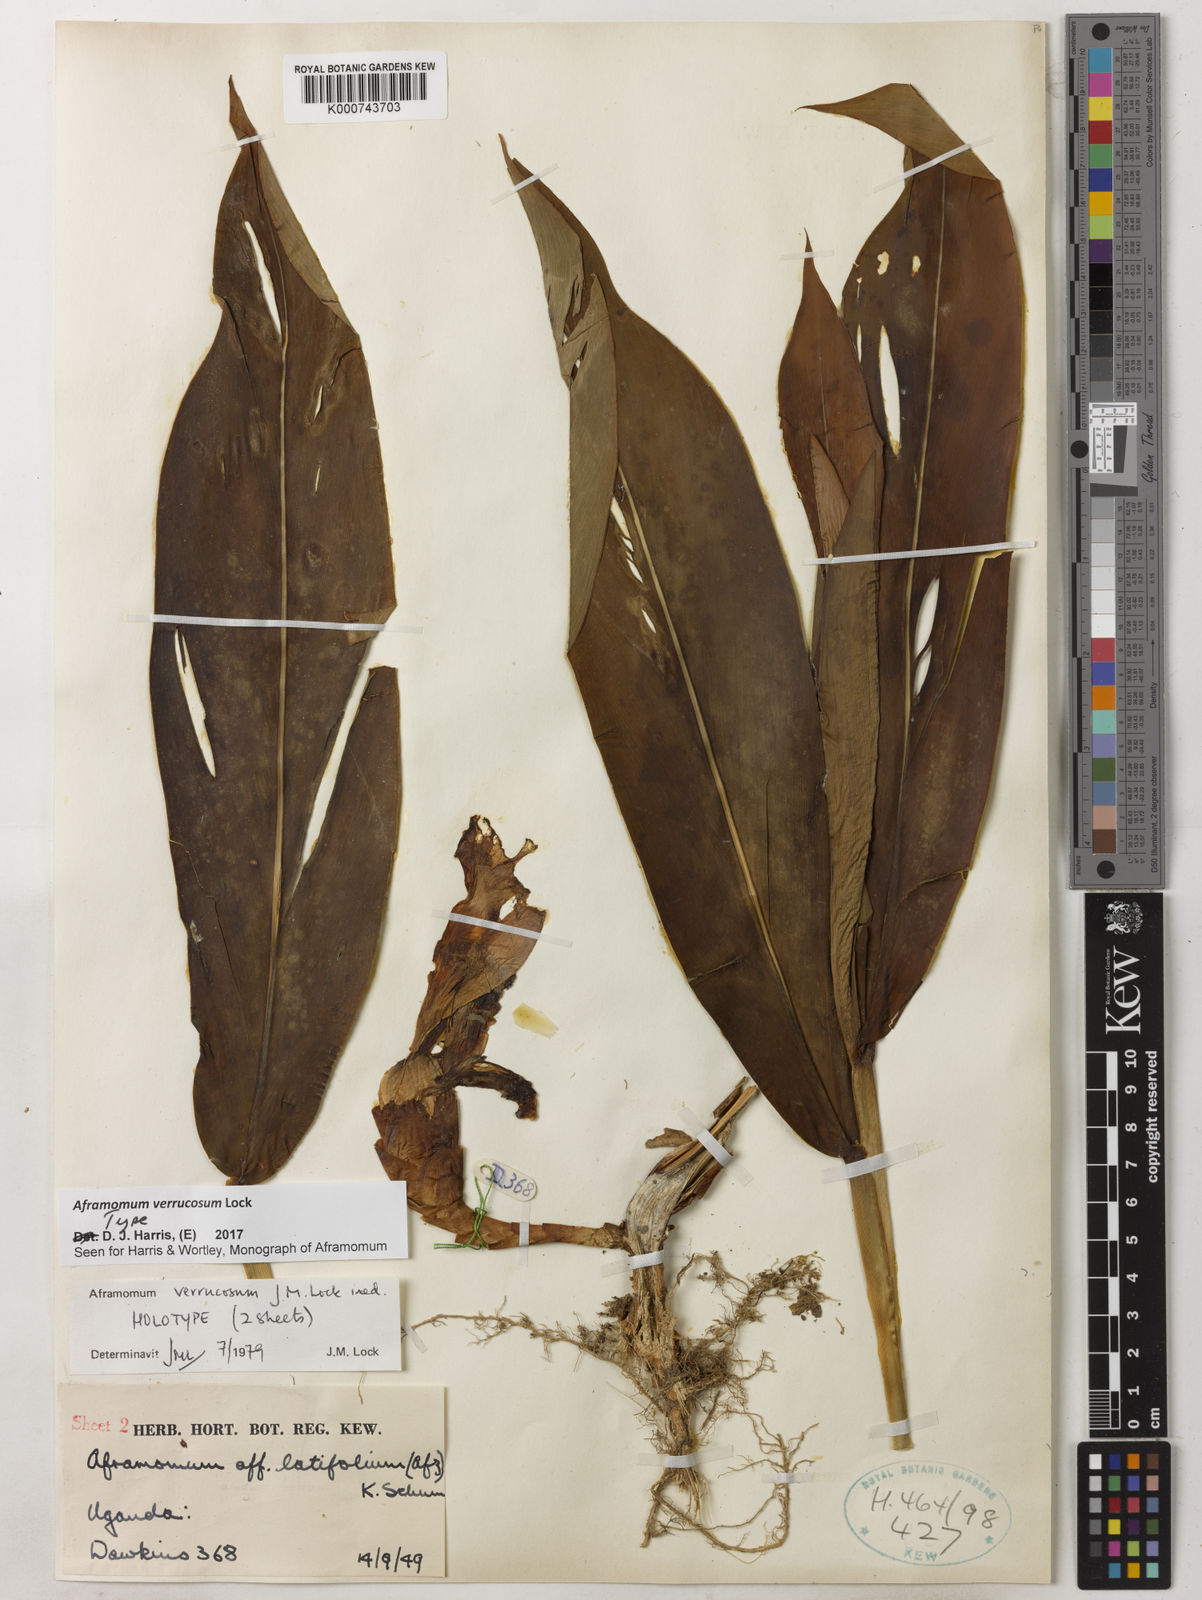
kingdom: Plantae
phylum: Tracheophyta
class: Liliopsida
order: Zingiberales
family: Zingiberaceae
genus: Aframomum
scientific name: Aframomum verrucosum
